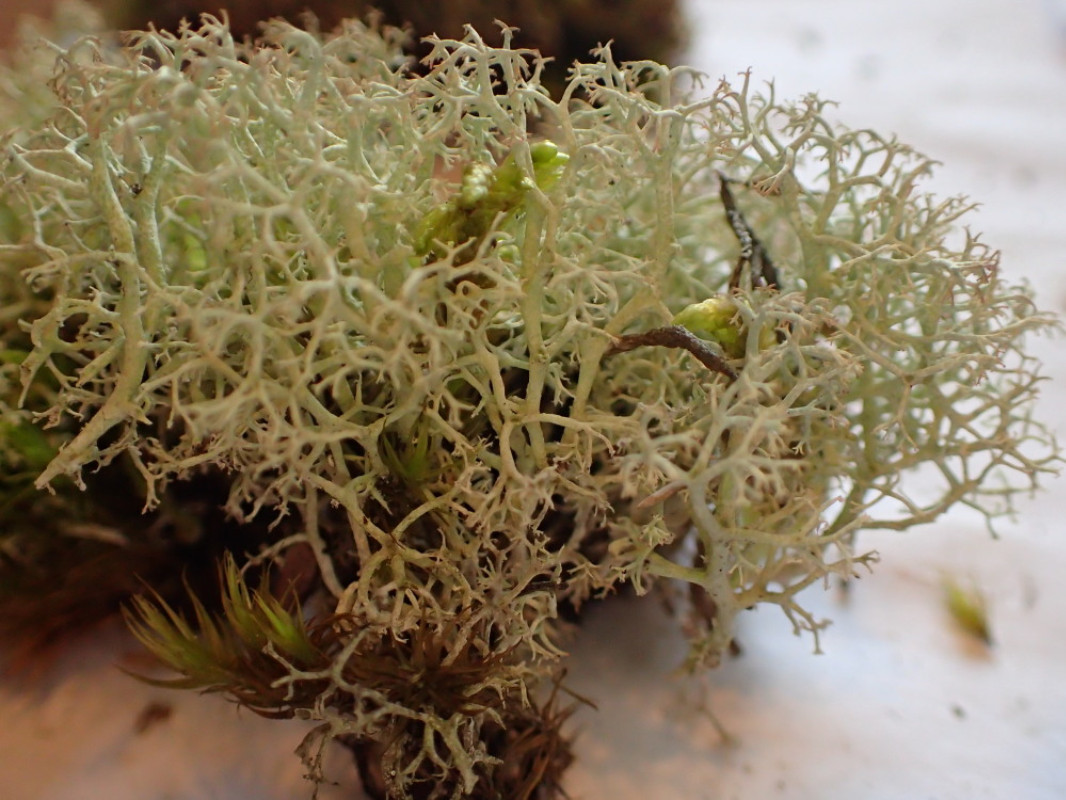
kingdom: Fungi
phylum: Ascomycota
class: Lecanoromycetes
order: Lecanorales
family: Cladoniaceae
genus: Cladonia
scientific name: Cladonia portentosa
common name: hede-rensdyrlav
